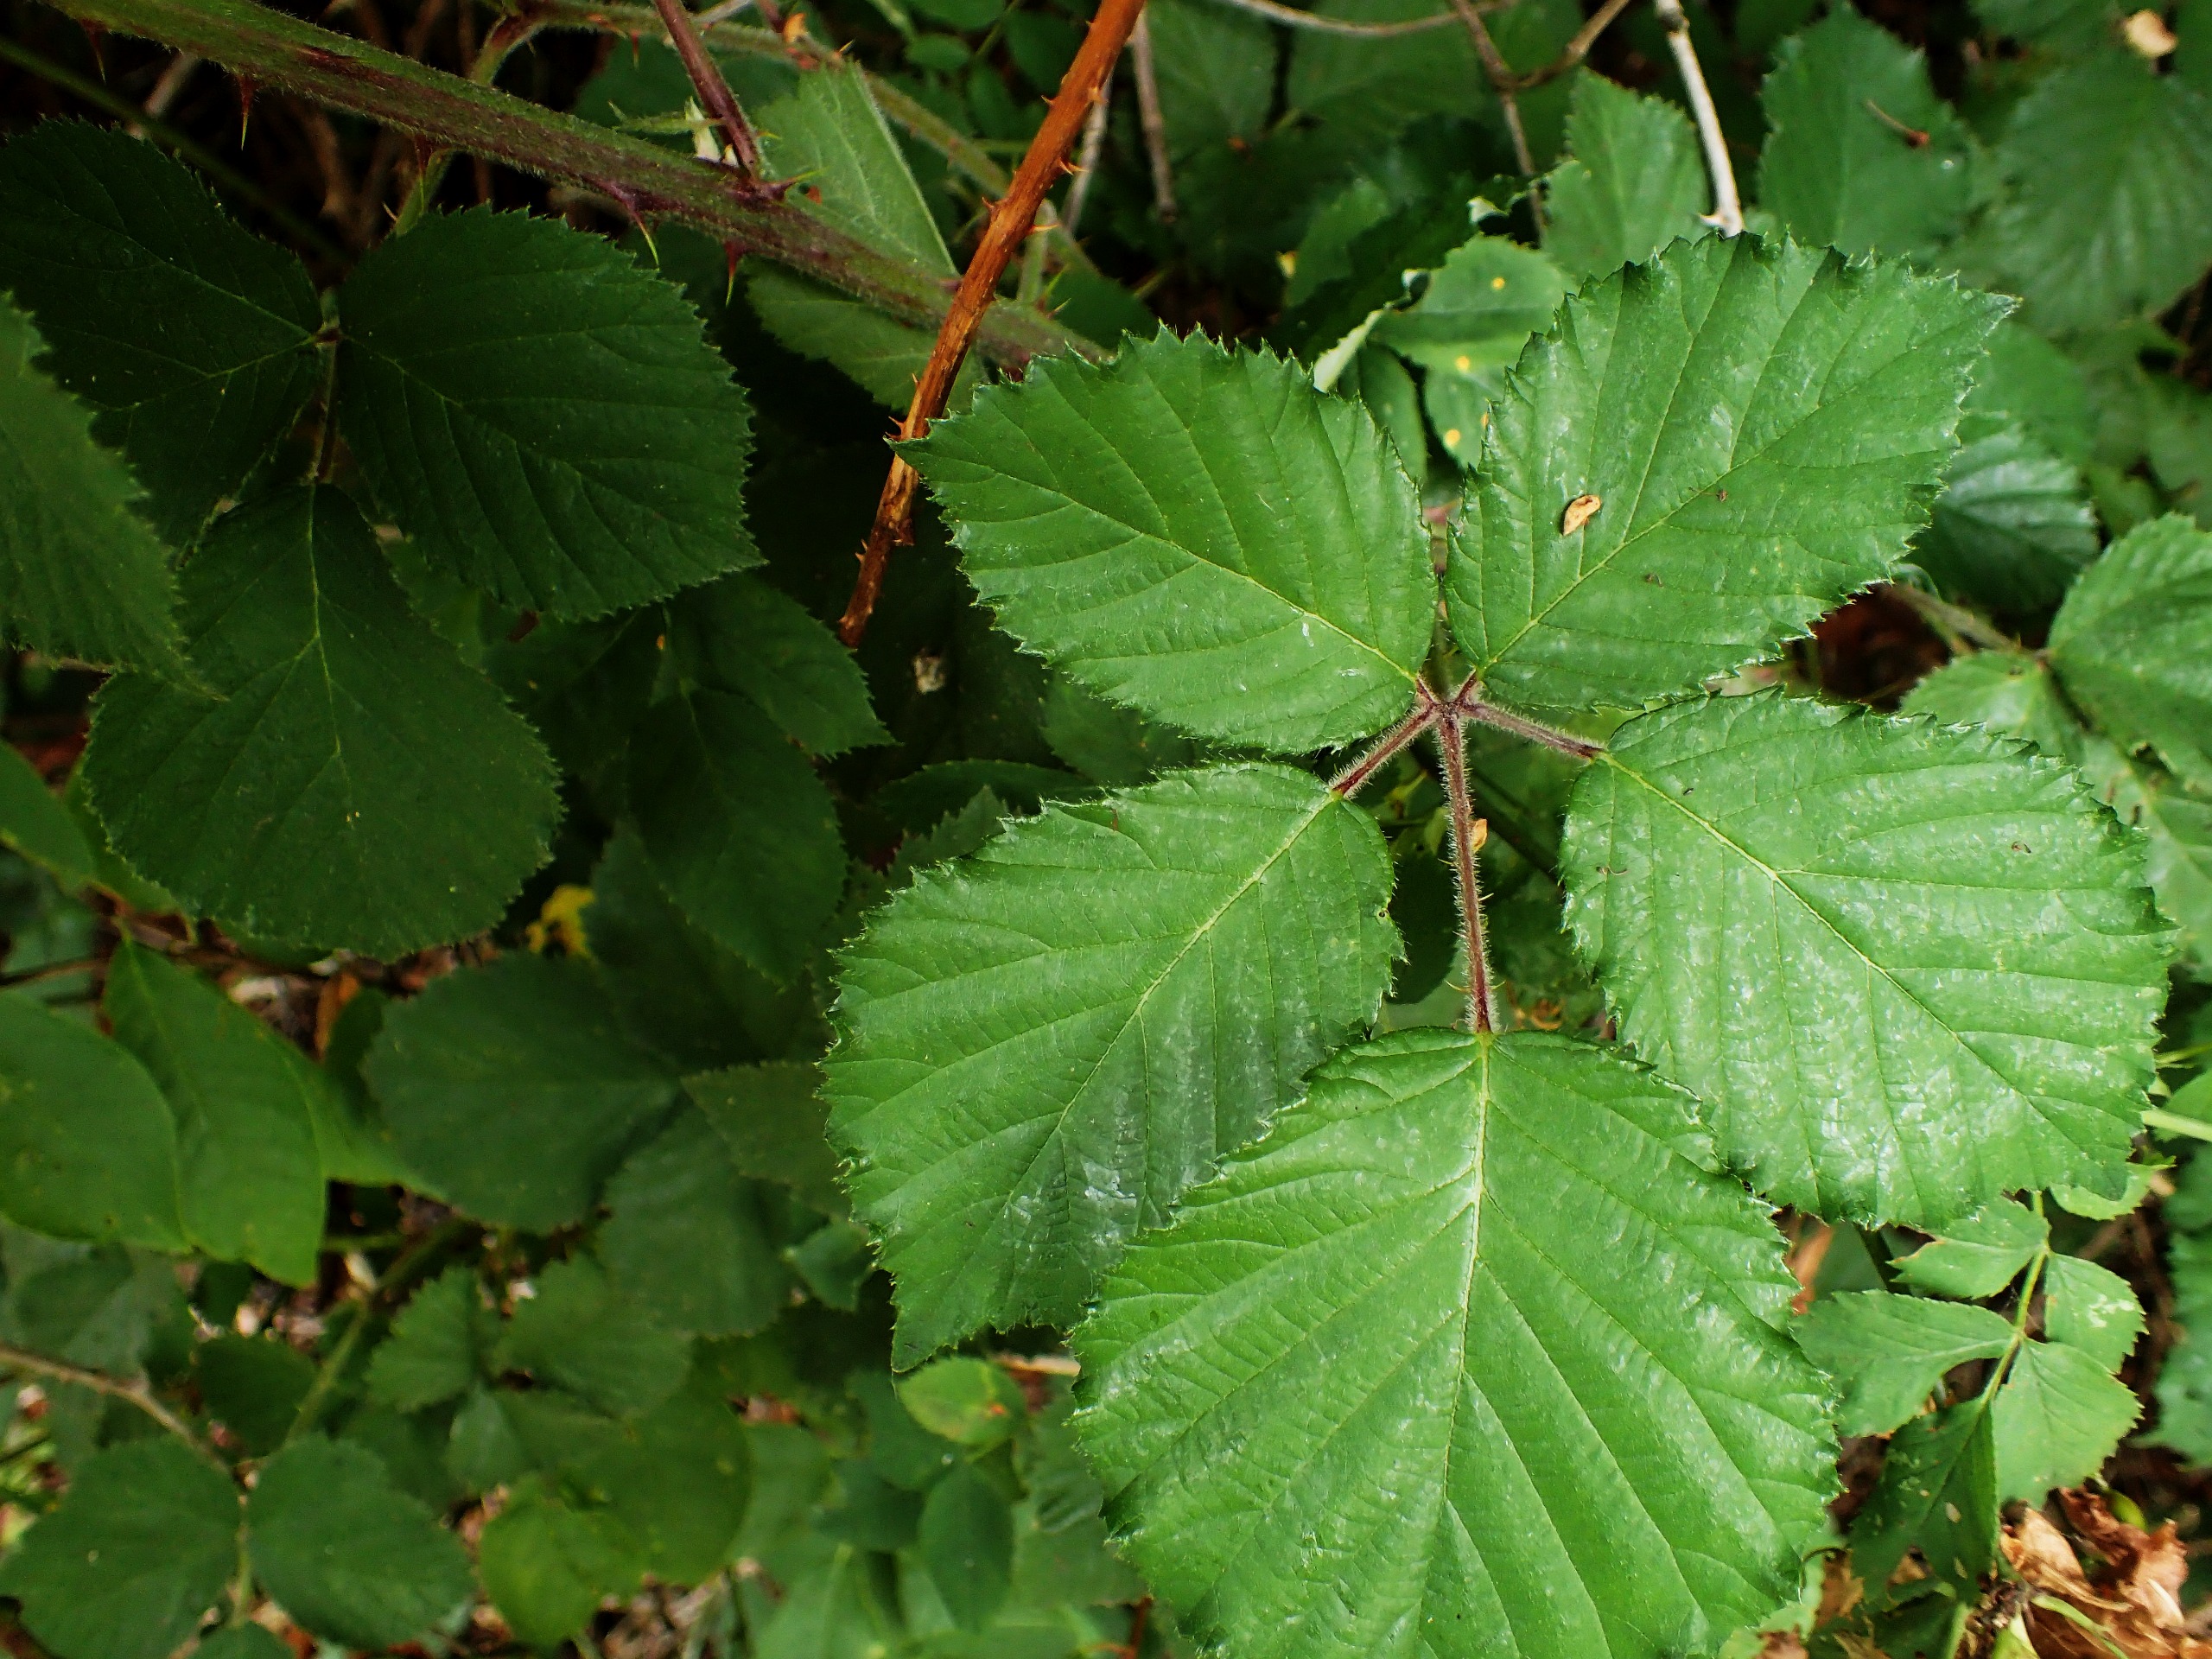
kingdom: Plantae
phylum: Tracheophyta
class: Magnoliopsida
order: Rosales
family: Rosaceae
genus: Rubus
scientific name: Rubus vestitus
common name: Rundbladet brombær
